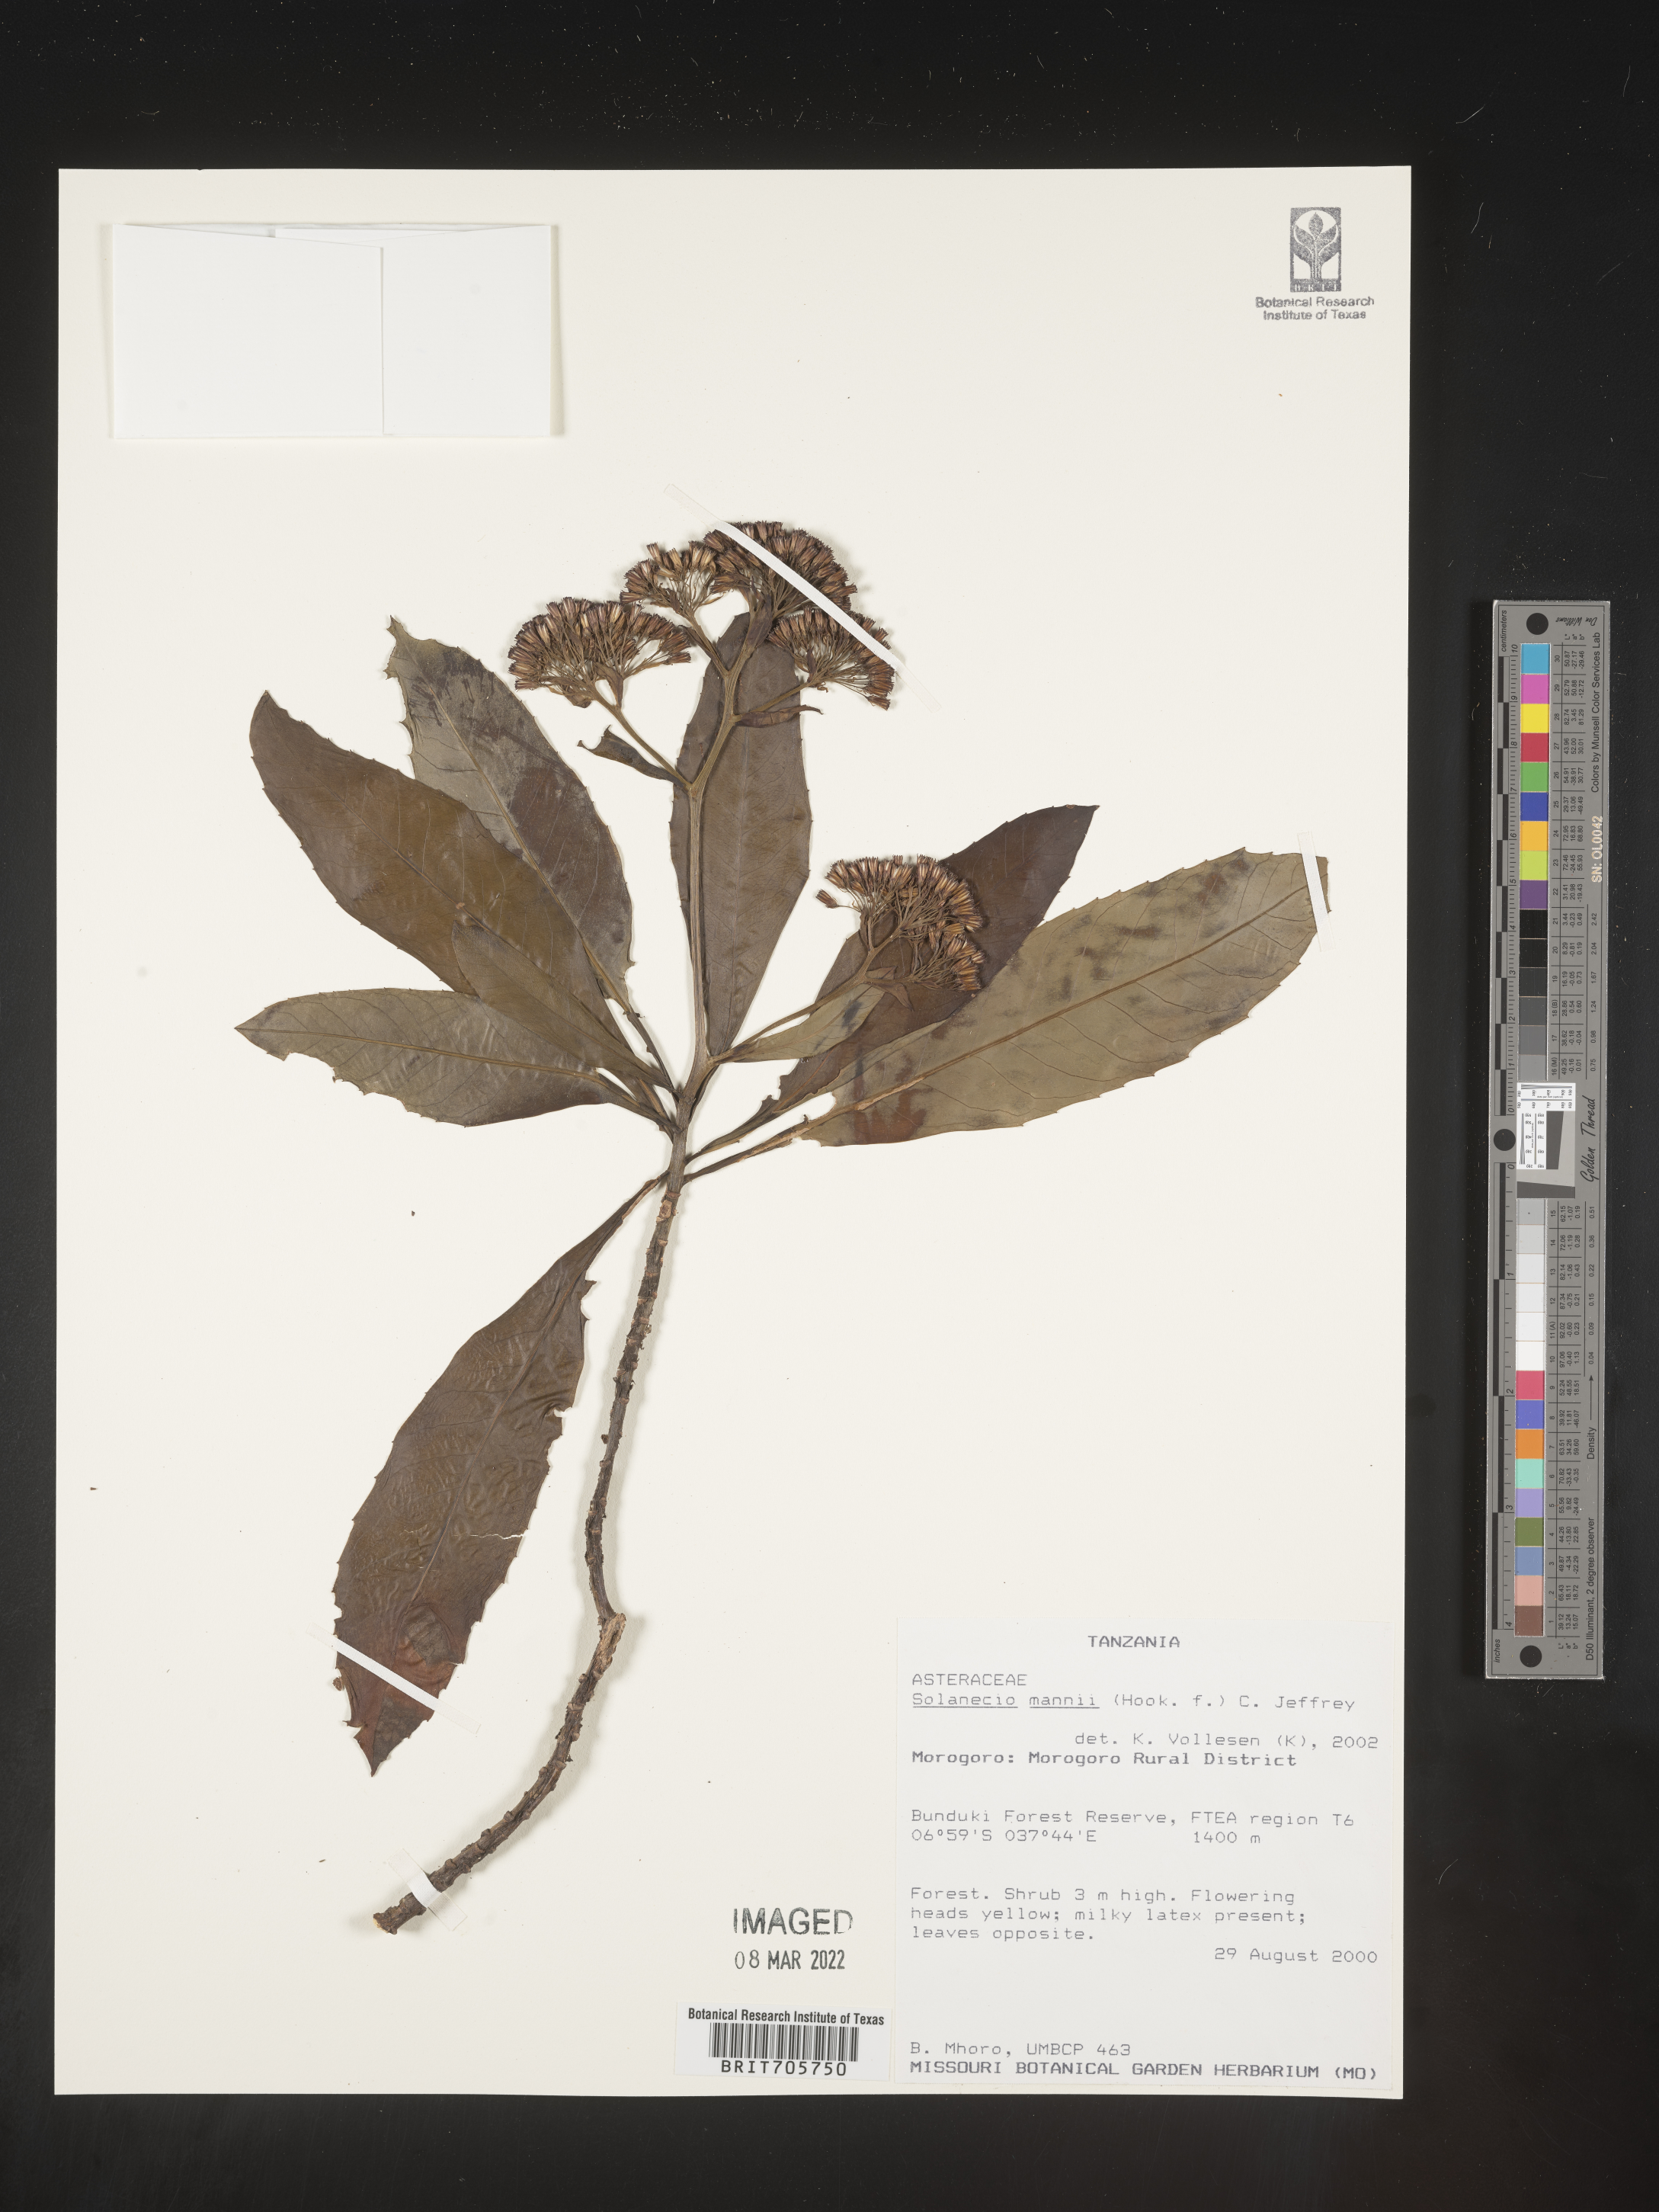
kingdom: Plantae
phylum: Tracheophyta
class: Magnoliopsida
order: Asterales
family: Asteraceae
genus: Solanecio
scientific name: Solanecio
